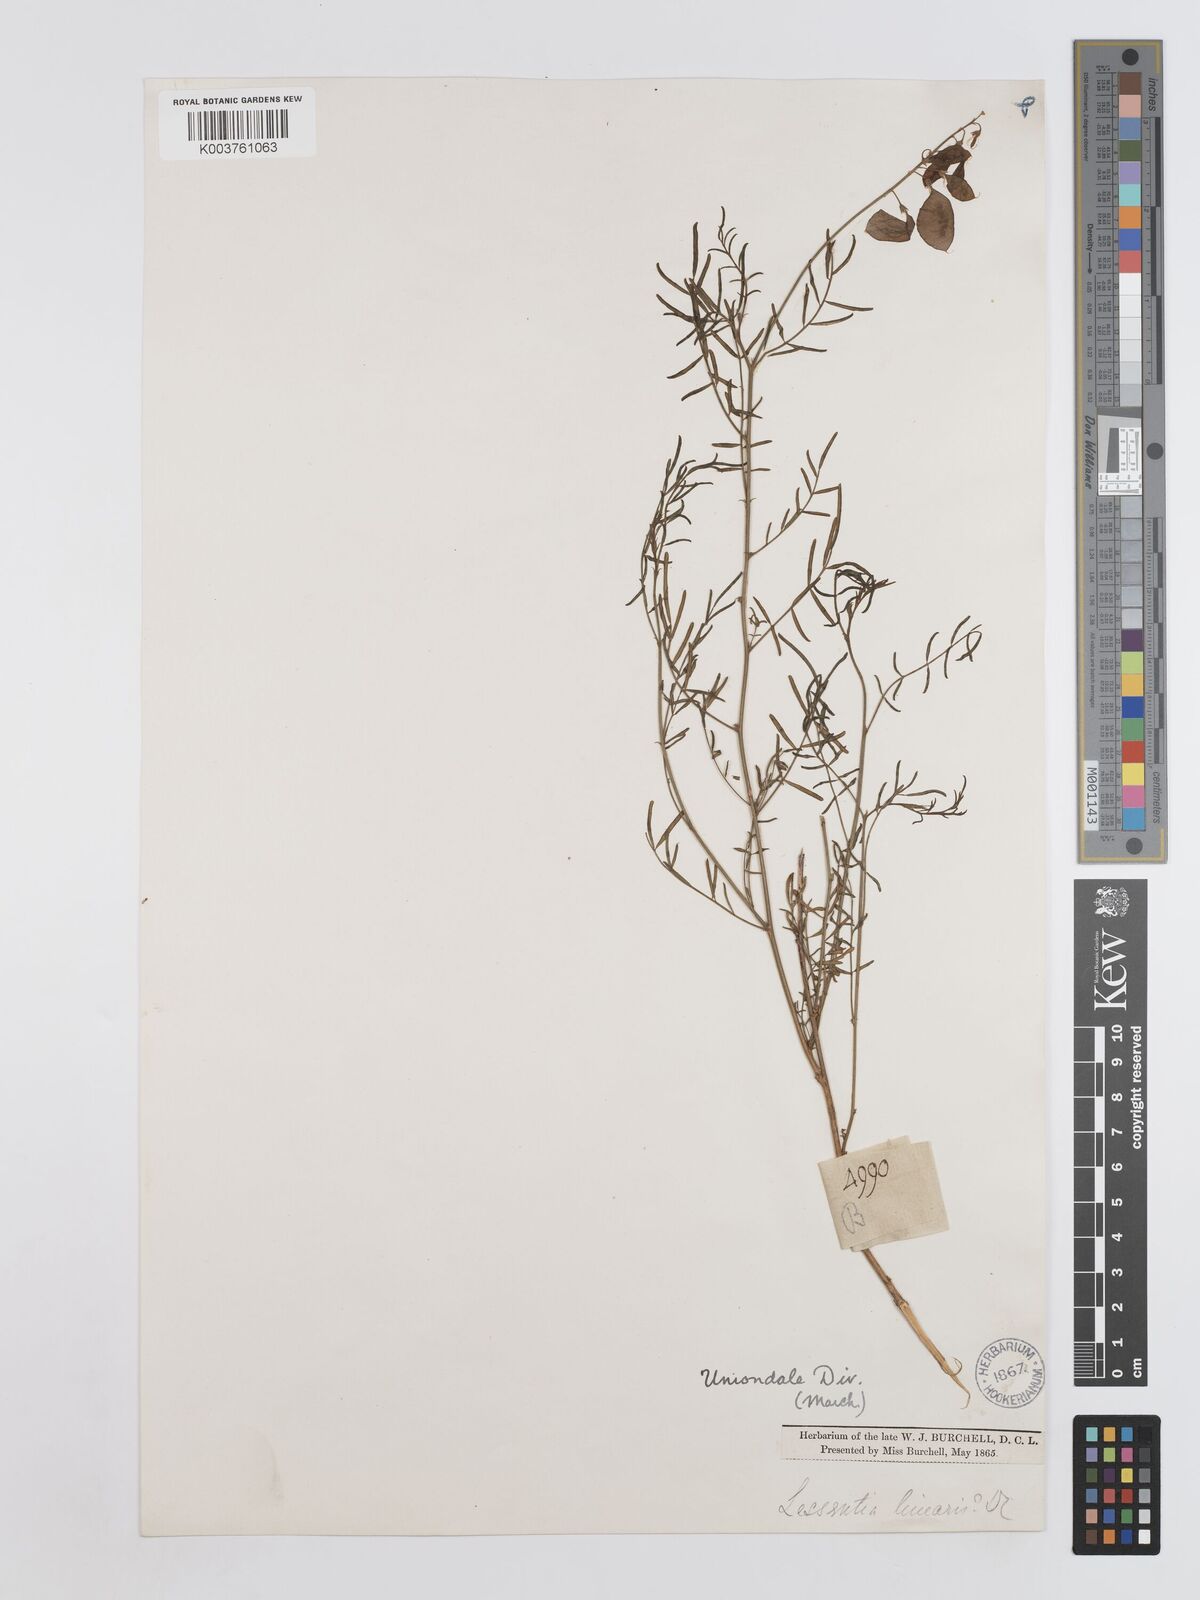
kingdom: Plantae
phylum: Tracheophyta
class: Magnoliopsida
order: Fabales
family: Fabaceae
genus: Lessertia
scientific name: Lessertia herbacea
